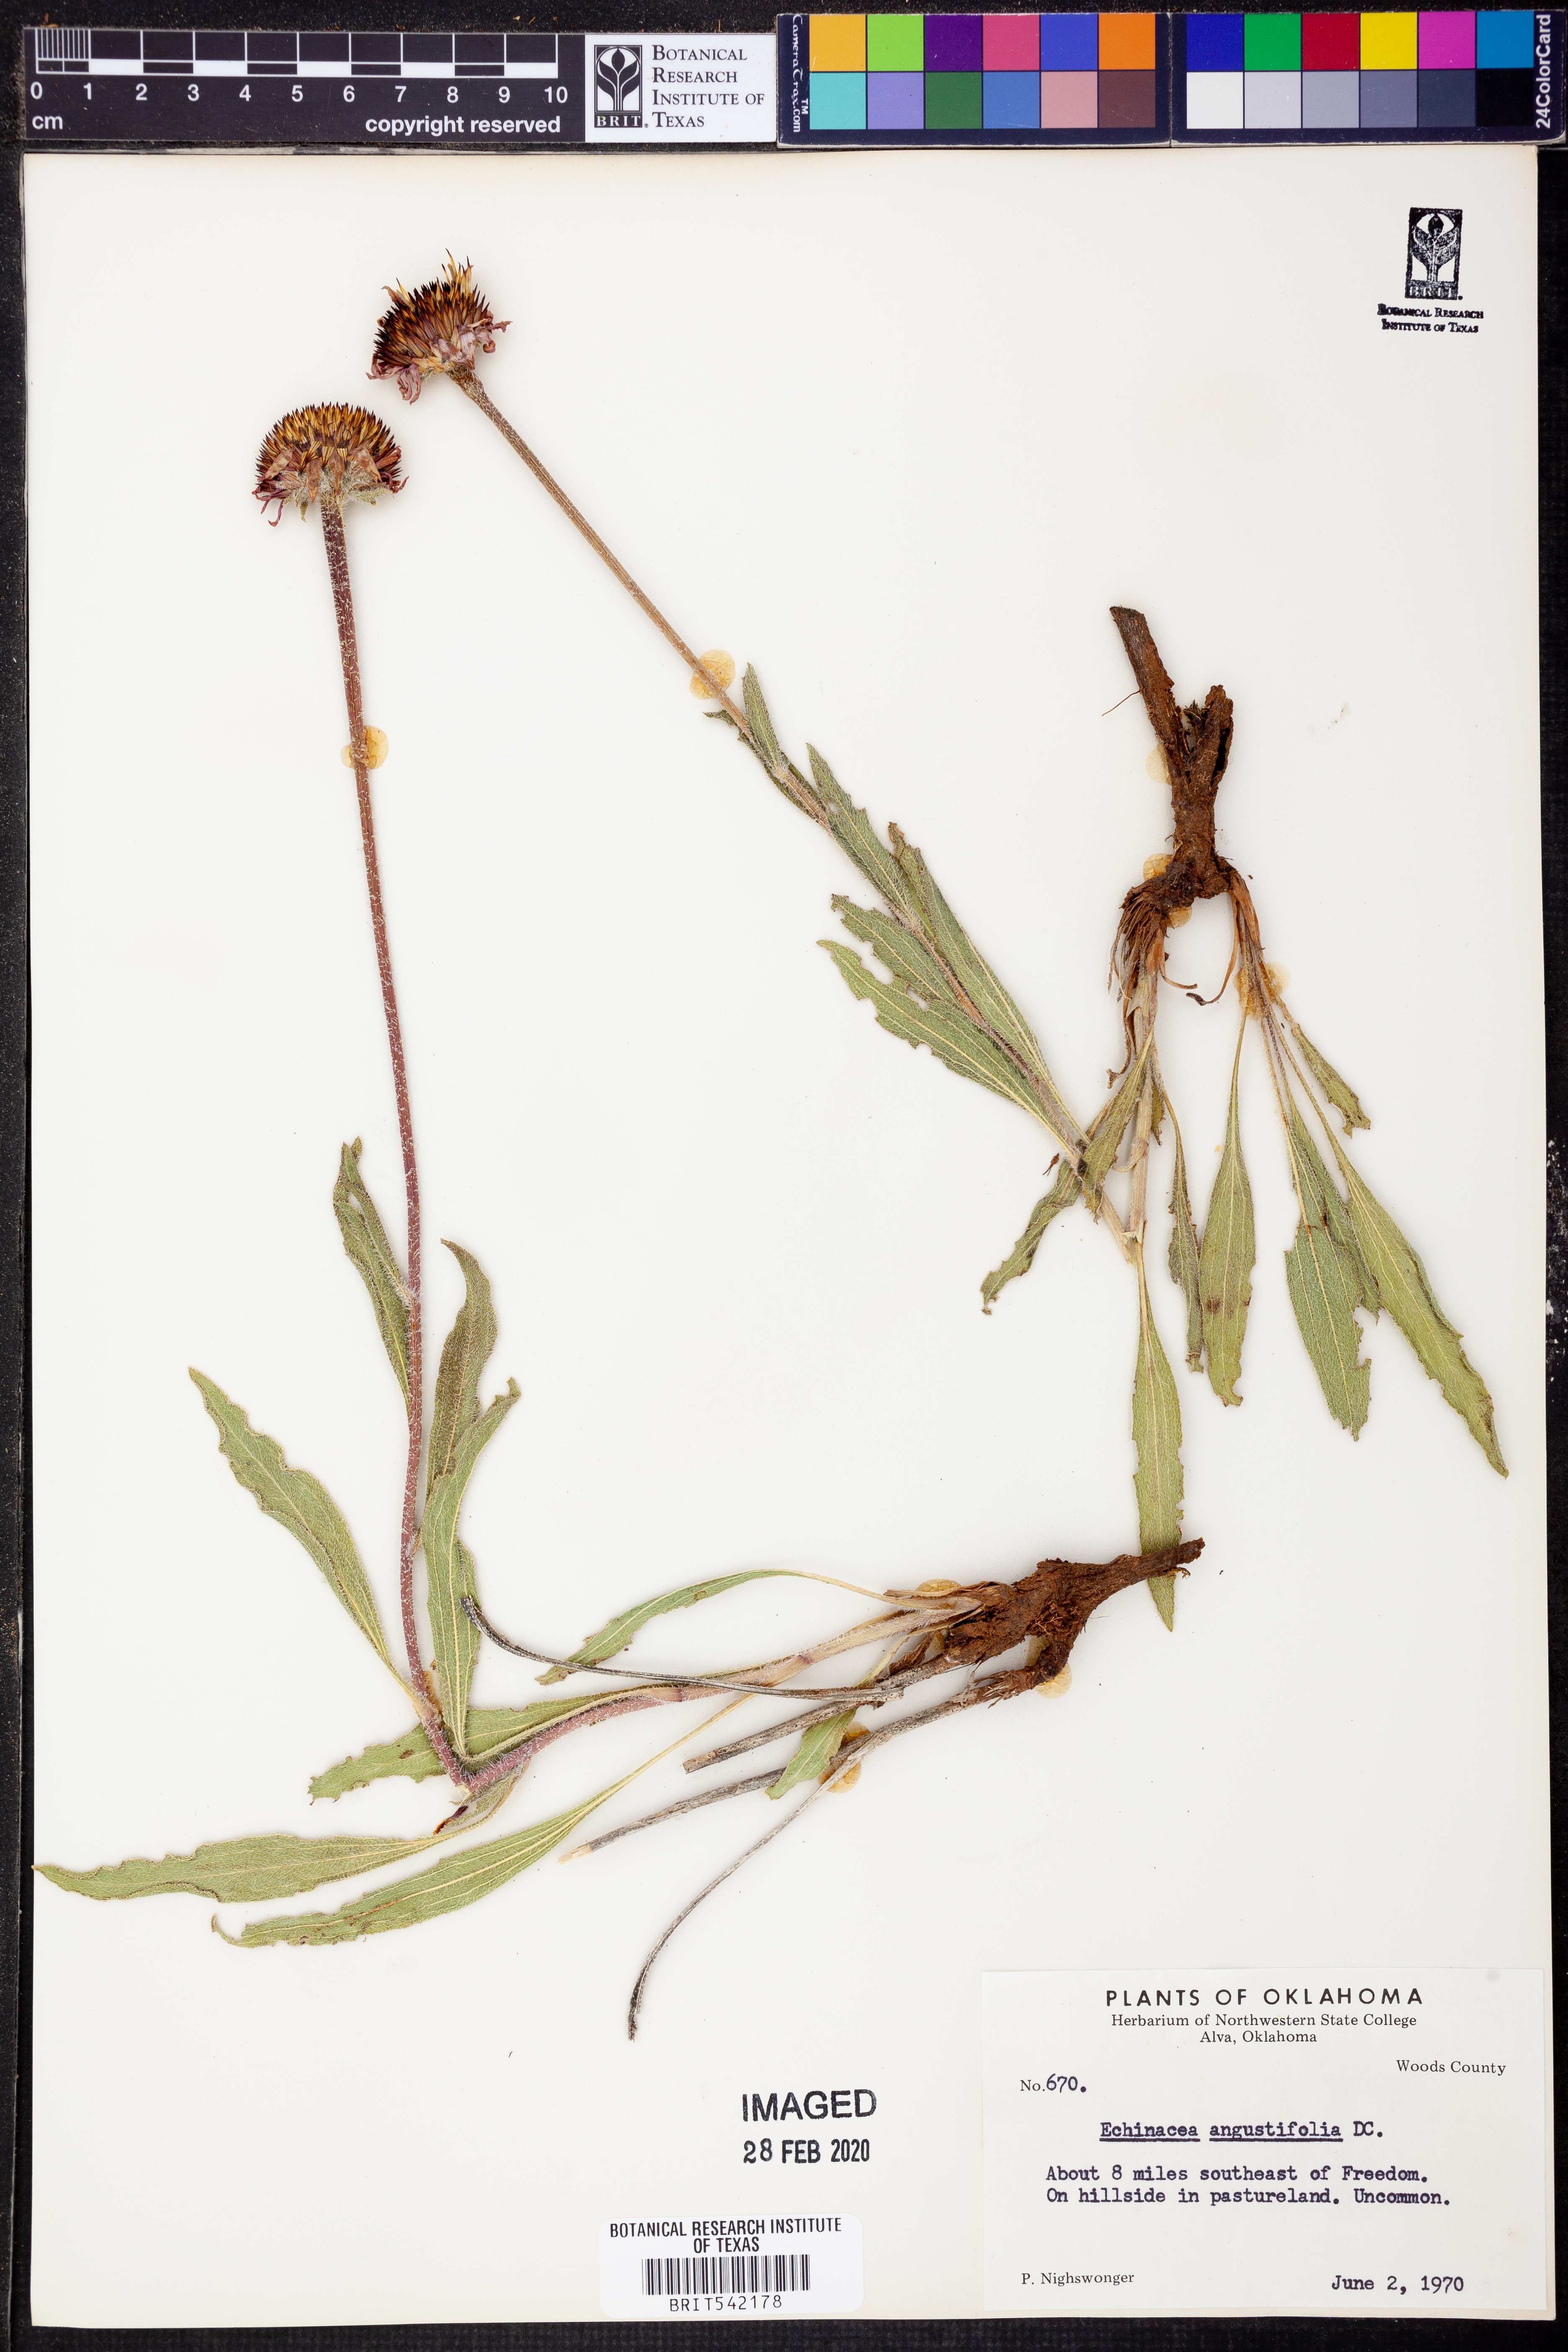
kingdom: Plantae
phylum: Tracheophyta
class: Magnoliopsida
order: Asterales
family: Asteraceae
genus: Echinacea
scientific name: Echinacea angustifolia
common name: Black-sampson echinacea
